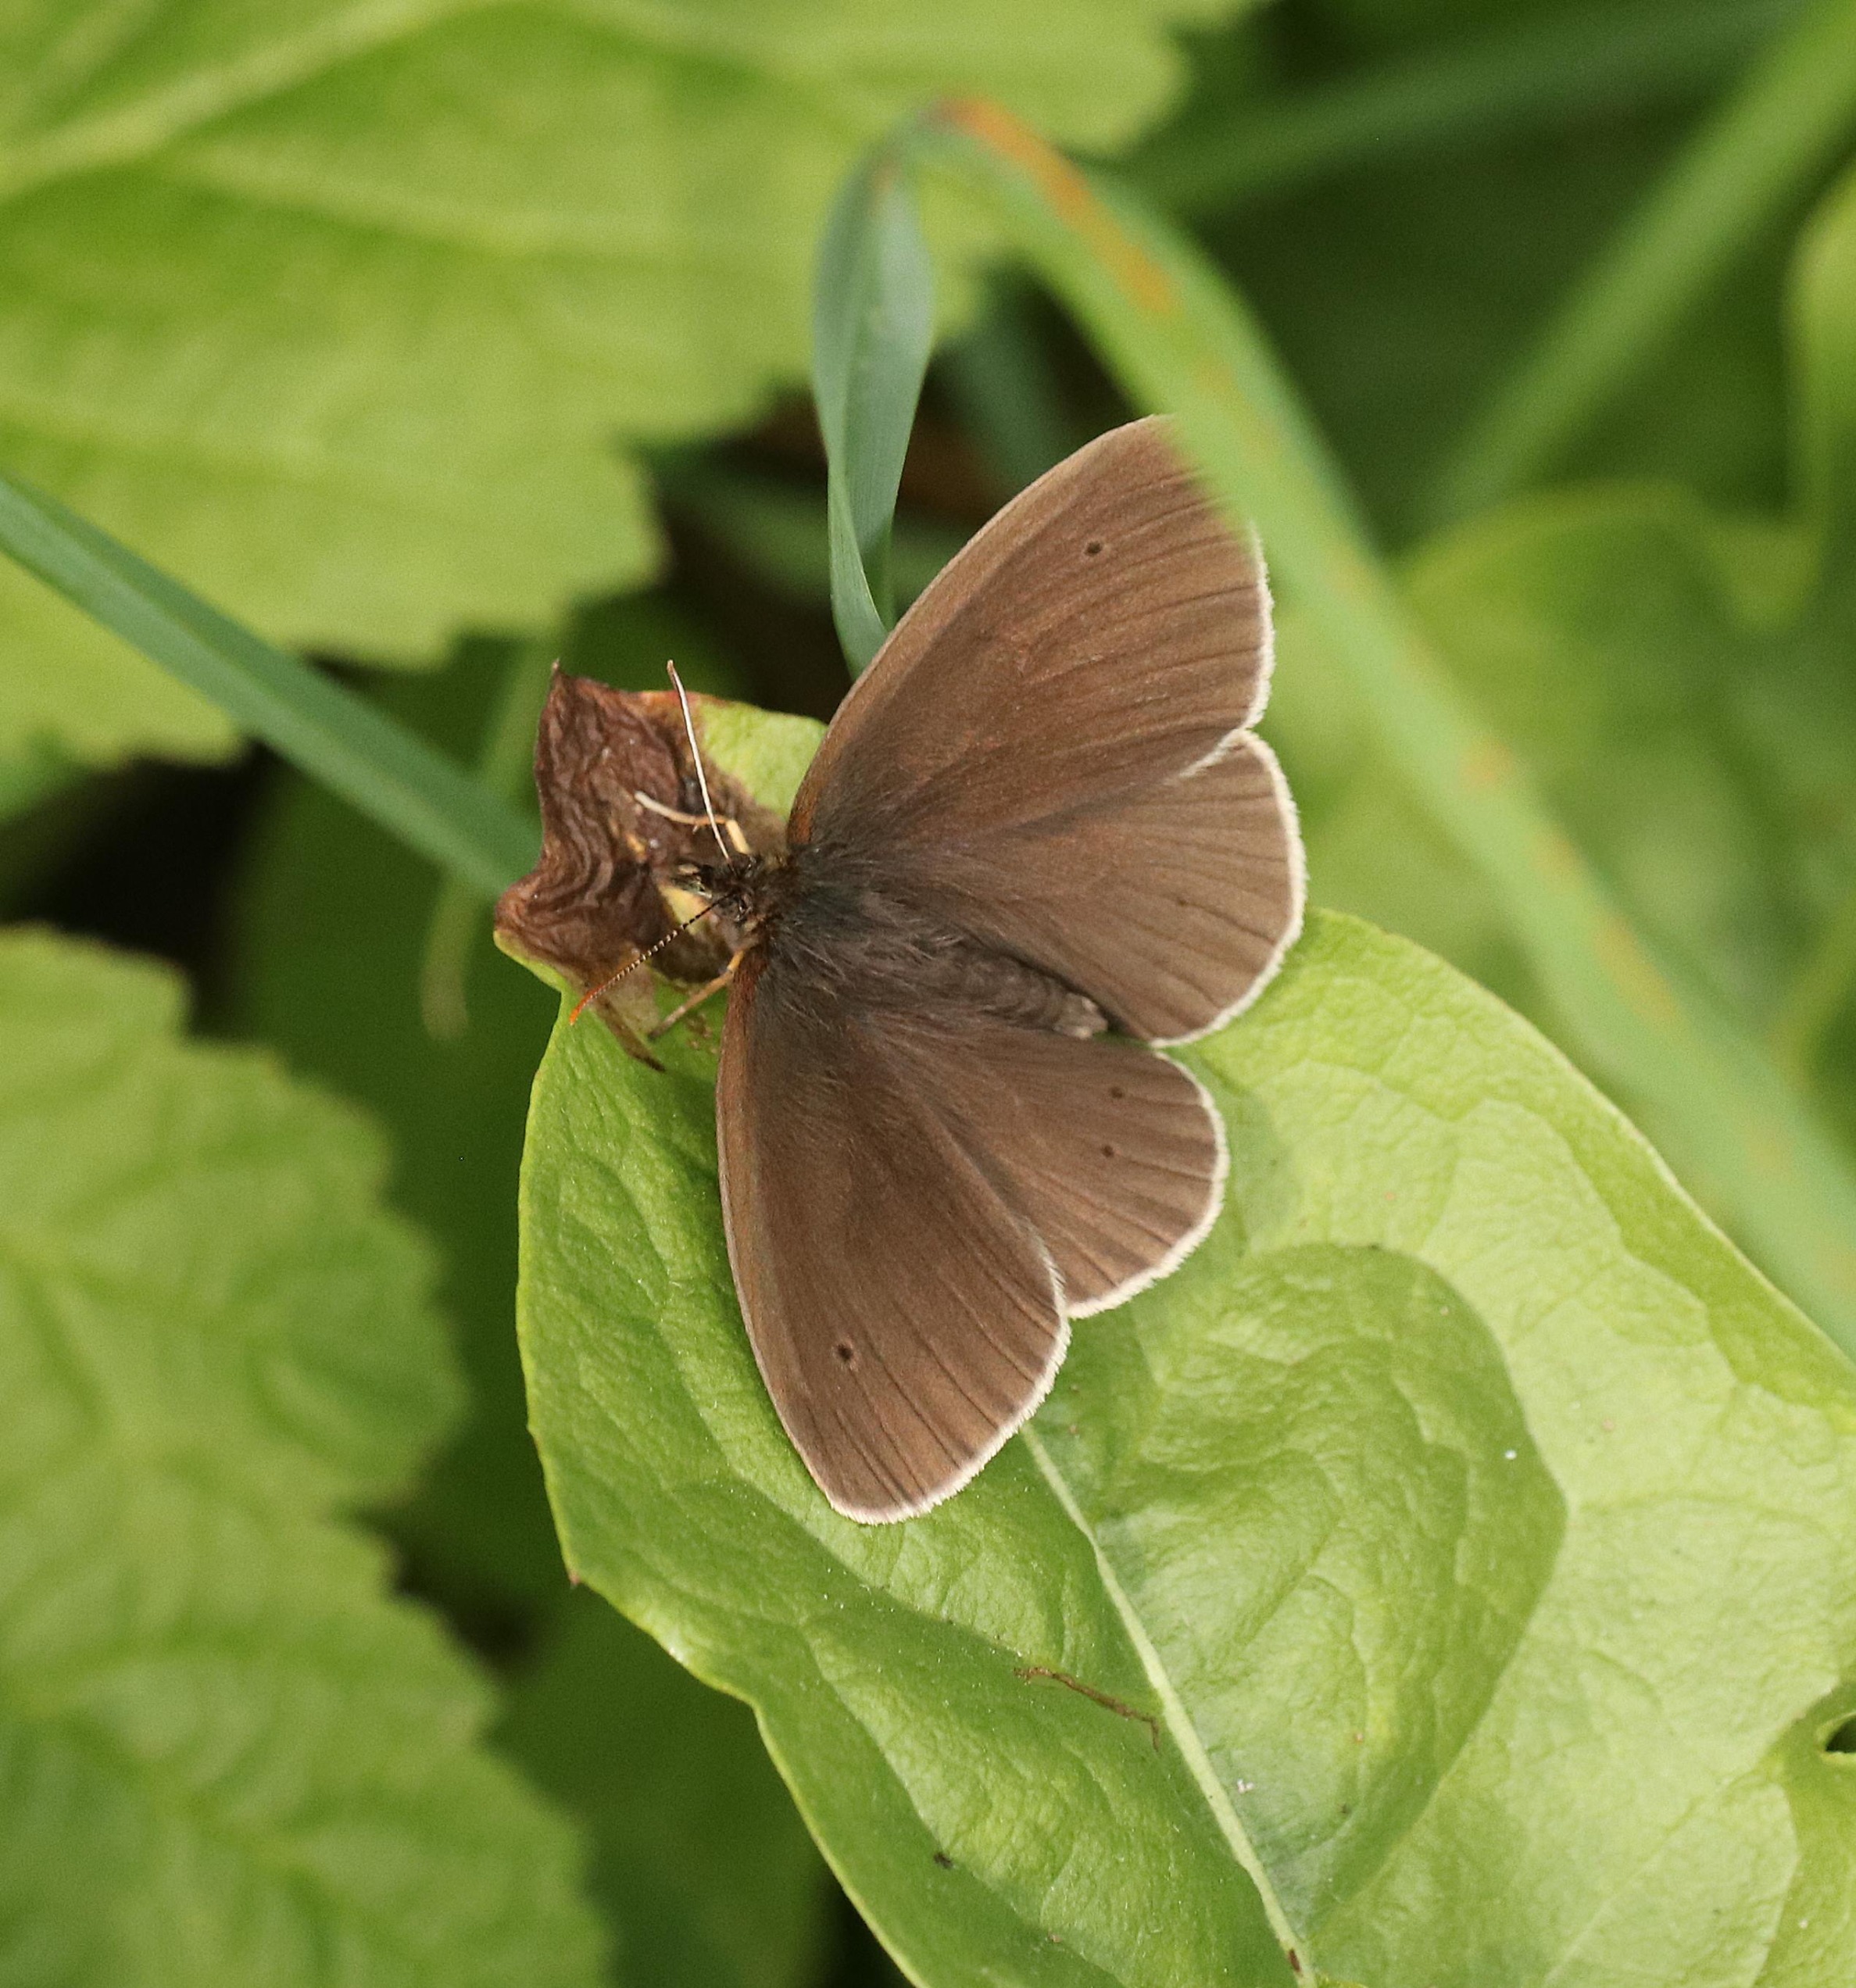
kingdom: Animalia
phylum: Arthropoda
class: Insecta
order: Lepidoptera
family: Nymphalidae
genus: Aphantopus
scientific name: Aphantopus hyperantus
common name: Engrandøje
